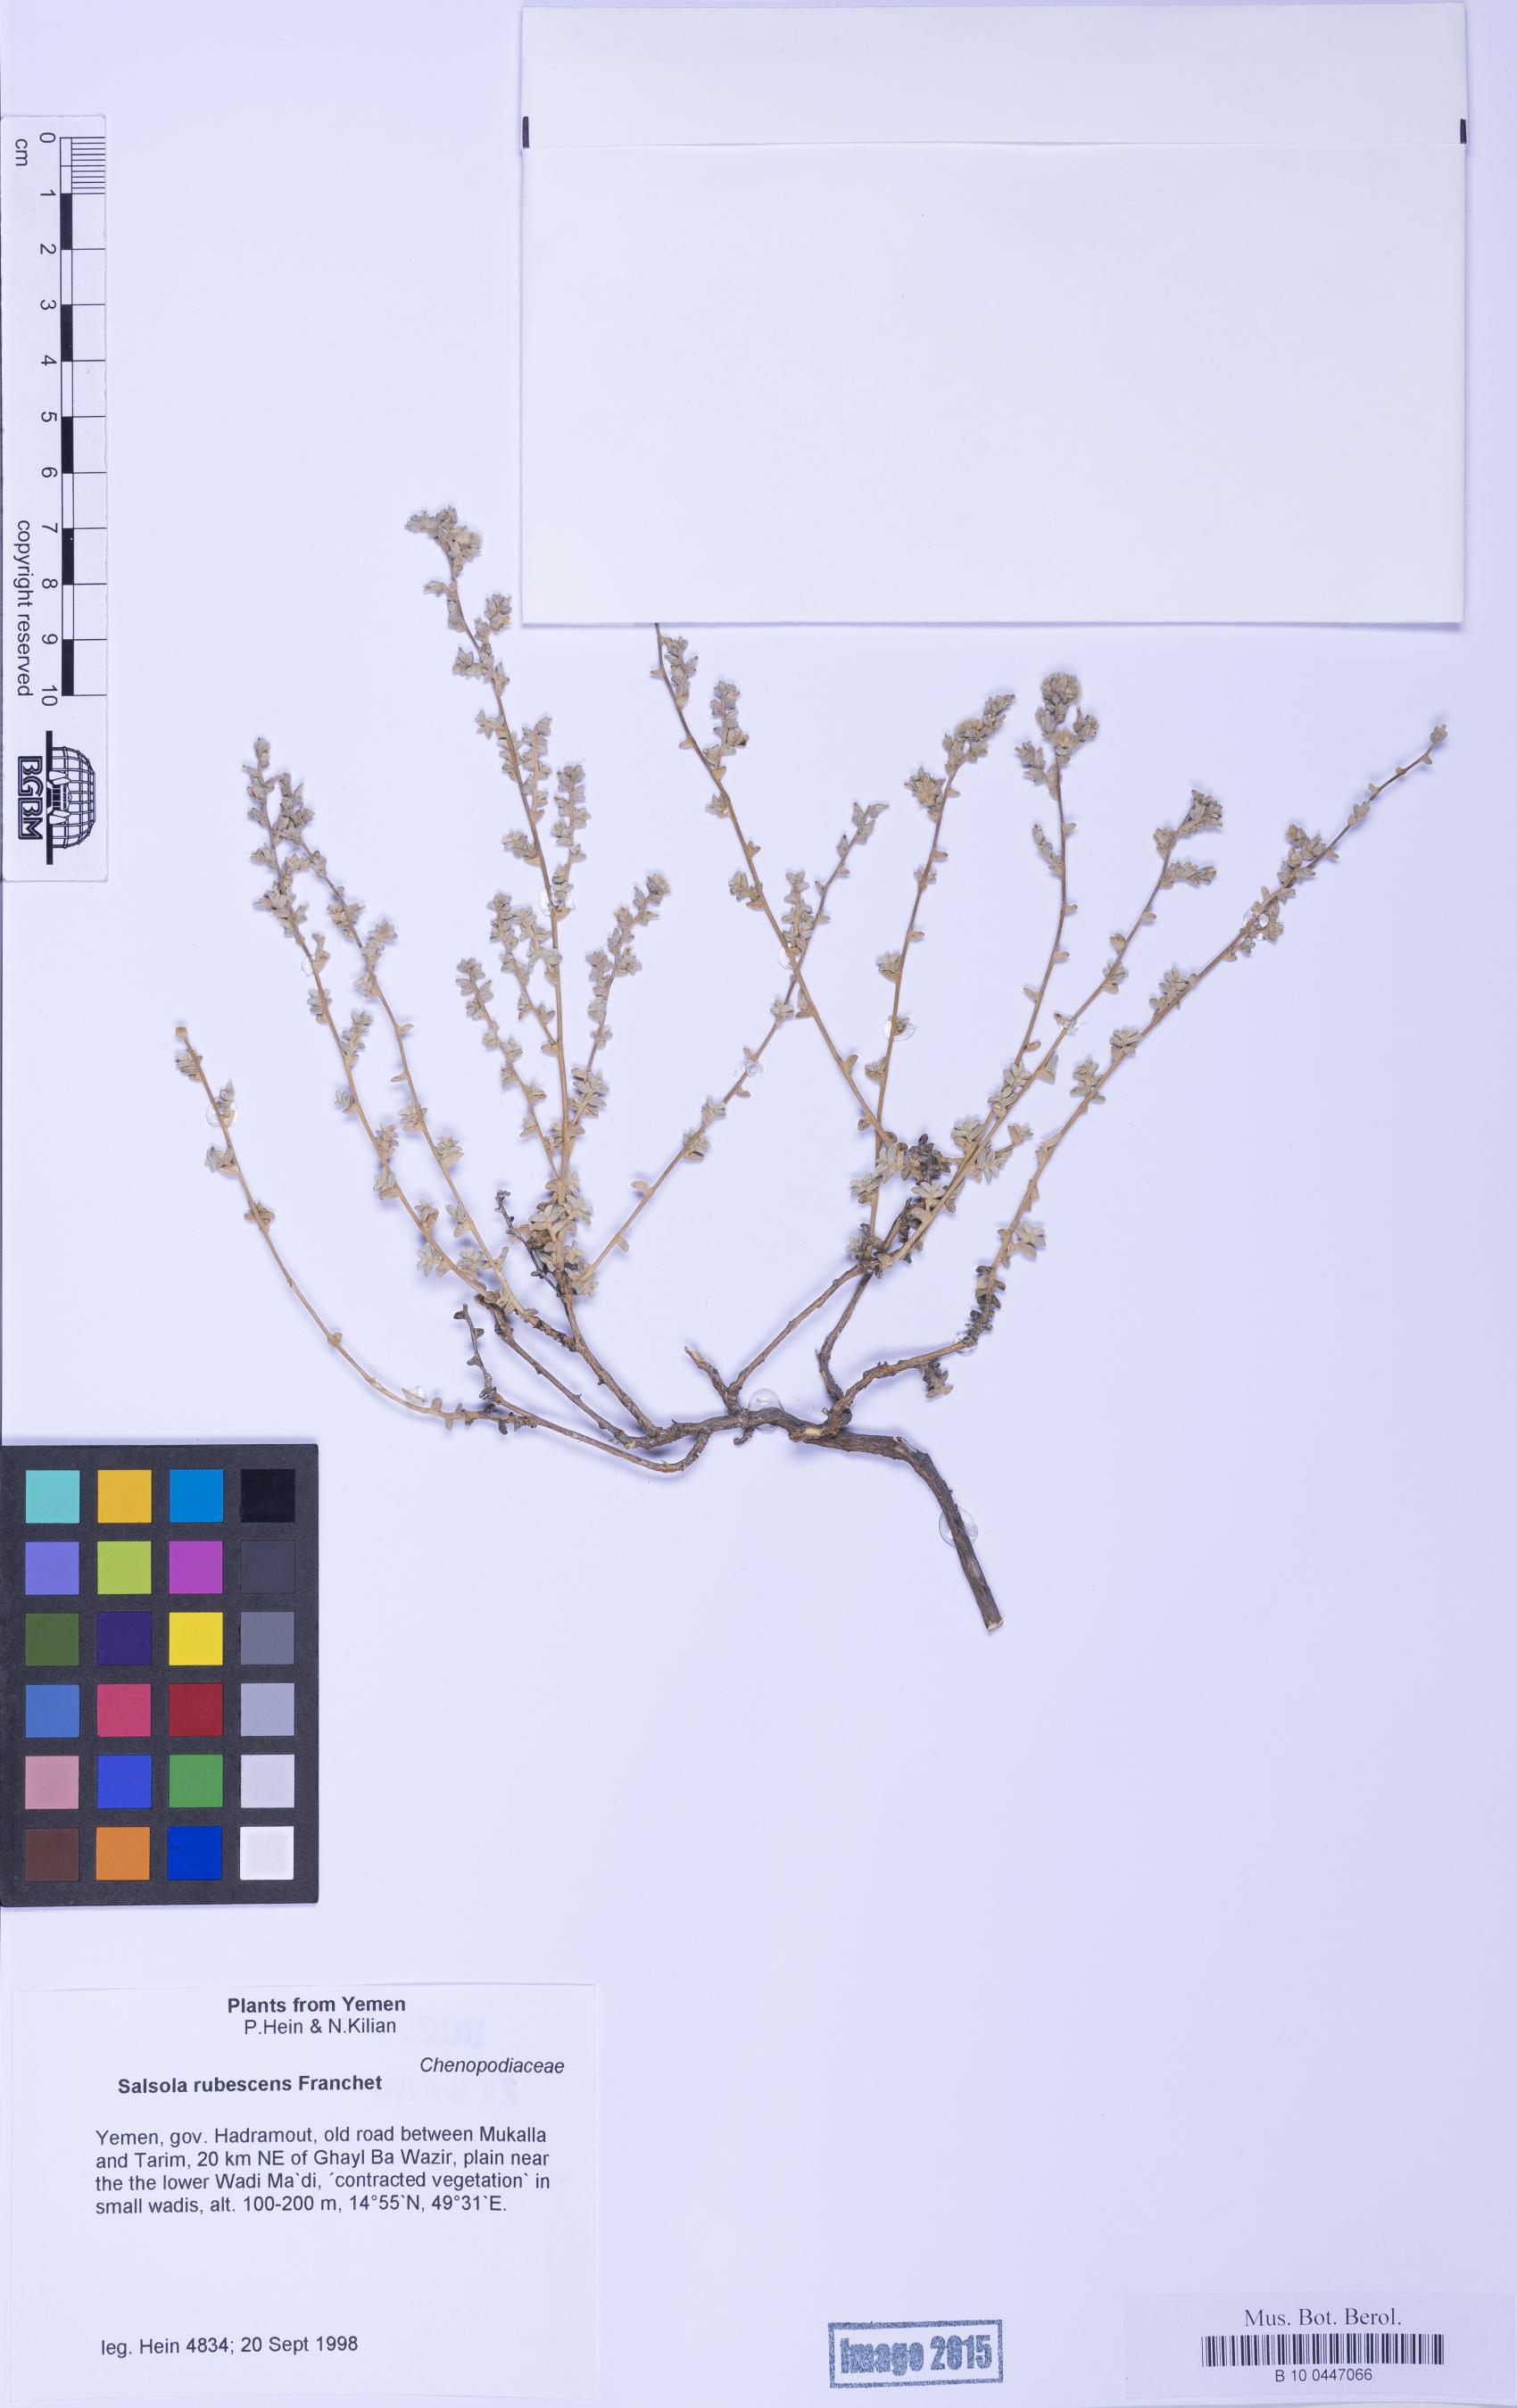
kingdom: Plantae
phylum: Tracheophyta
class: Magnoliopsida
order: Caryophyllales
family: Amaranthaceae
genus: Kaviria
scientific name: Kaviria rubescens
